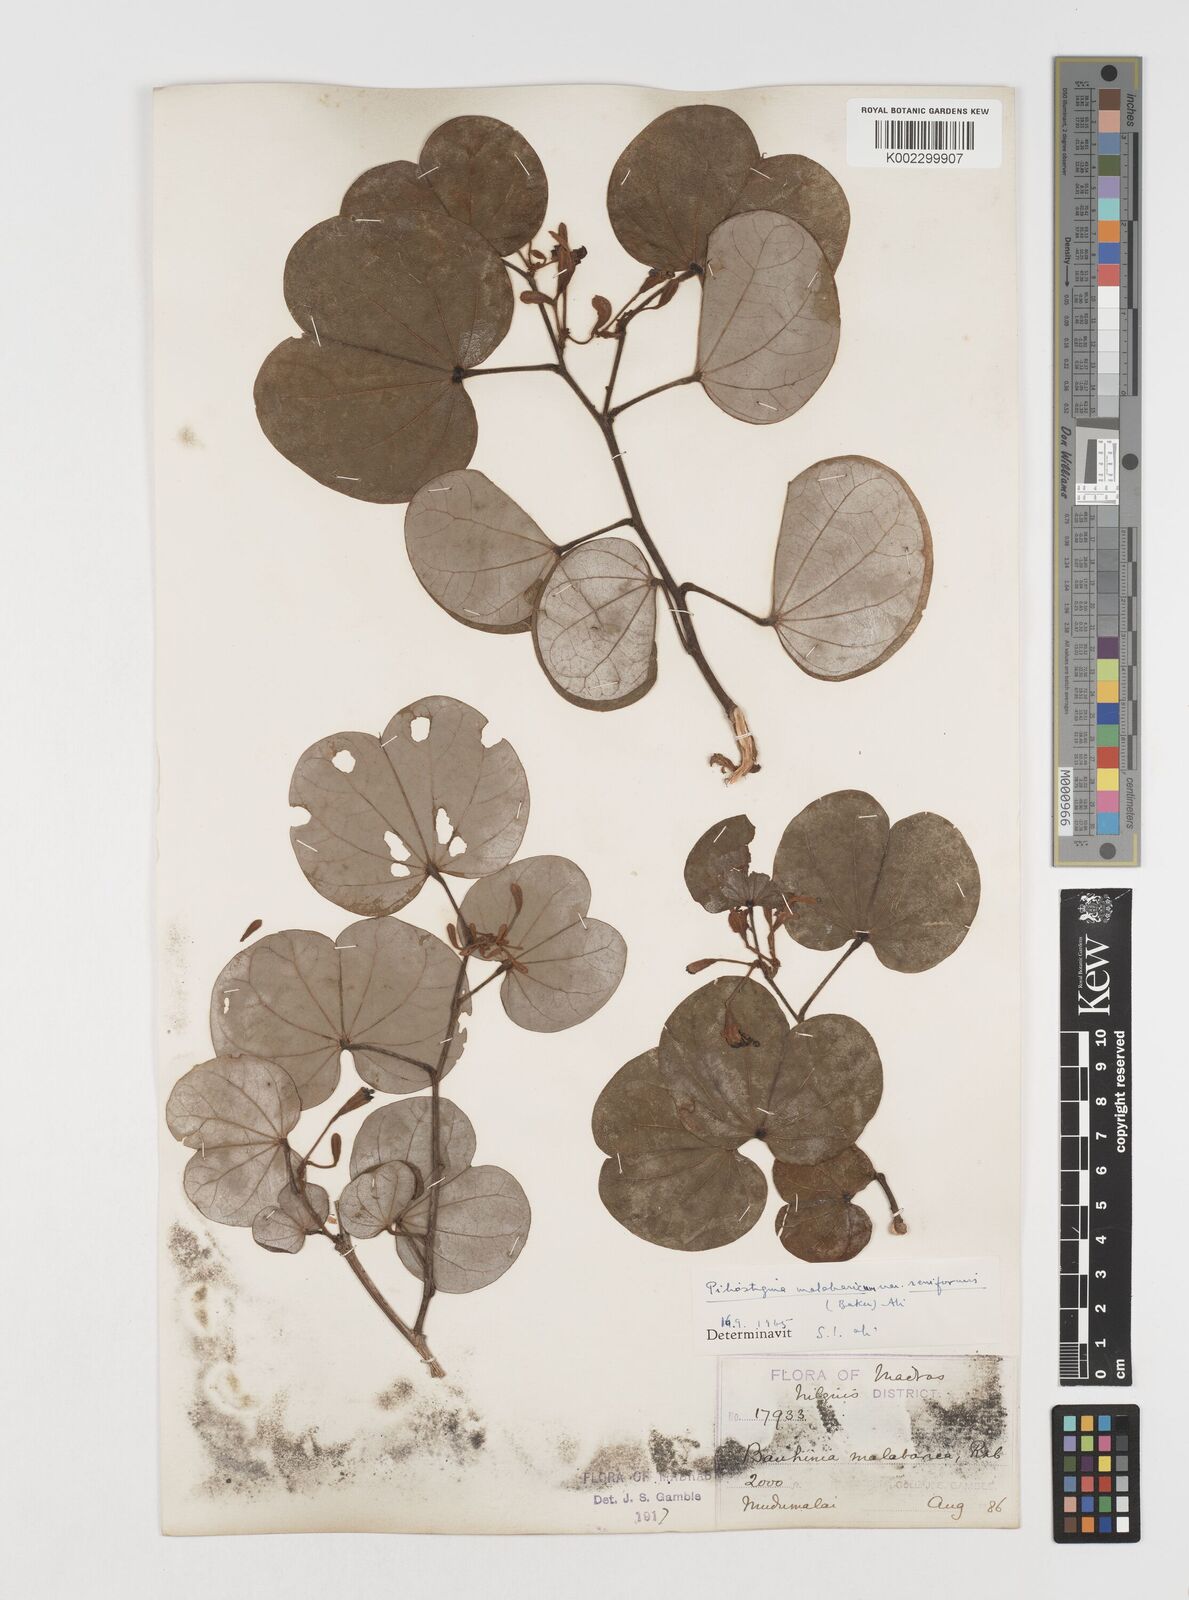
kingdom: Plantae
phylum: Tracheophyta
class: Magnoliopsida
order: Fabales
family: Fabaceae
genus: Piliostigma
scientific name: Piliostigma malabaricum
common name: Malabar bauhinia
